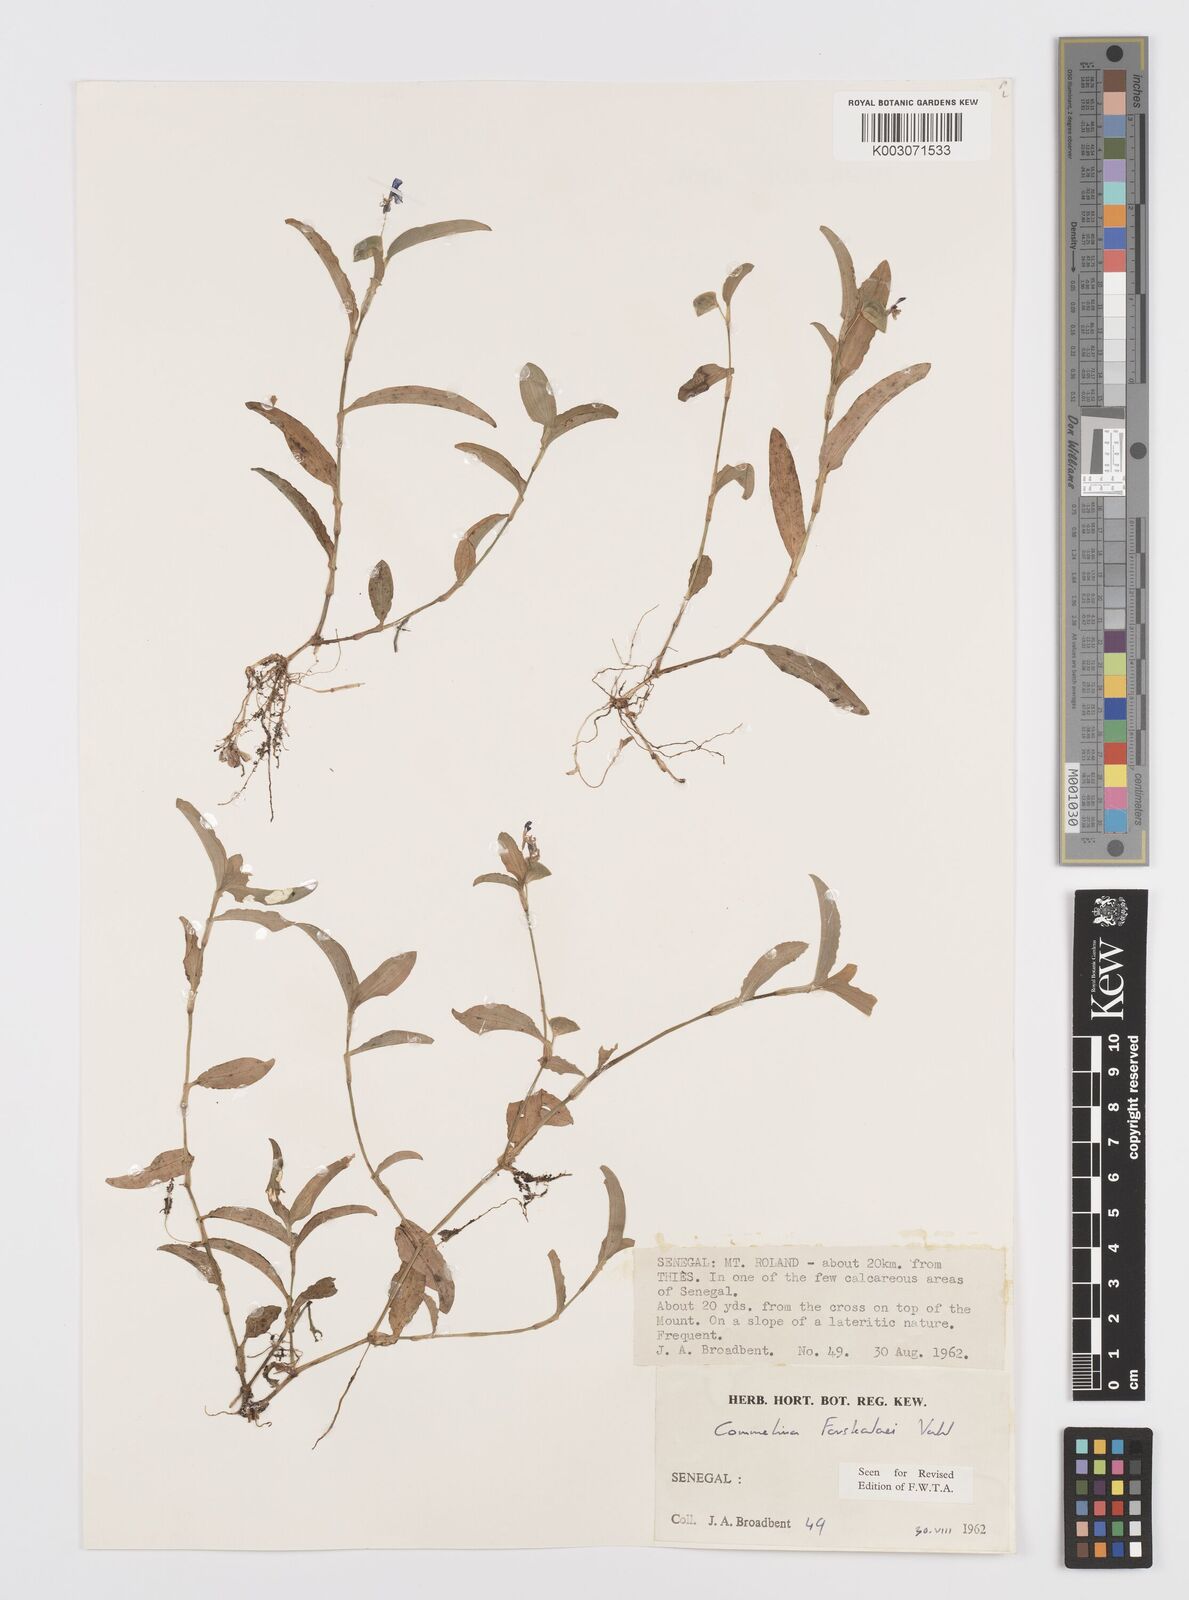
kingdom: Plantae
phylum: Tracheophyta
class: Liliopsida
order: Commelinales
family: Commelinaceae
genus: Commelina
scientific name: Commelina forskaolii
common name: Rat's ear
